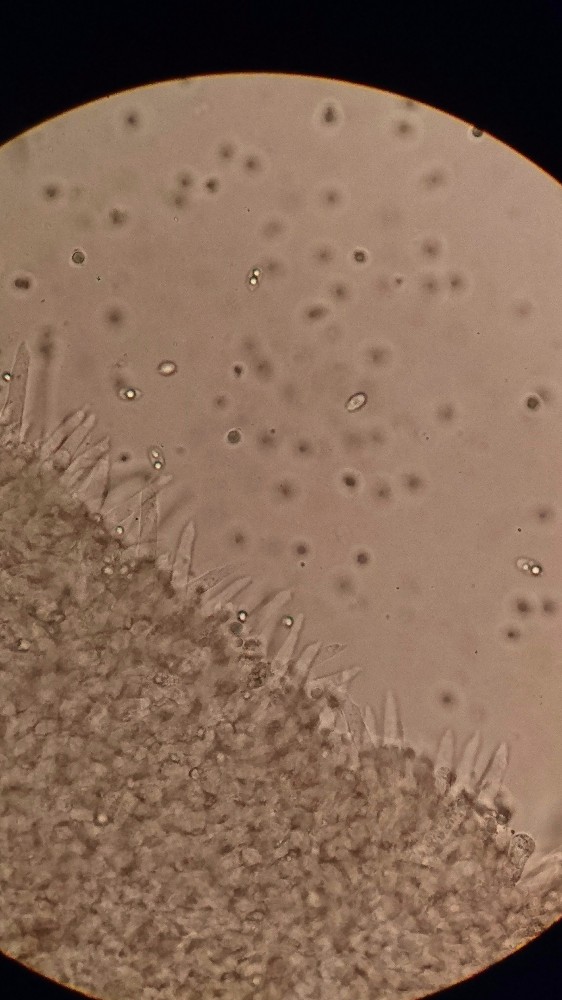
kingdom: Fungi
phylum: Basidiomycota
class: Agaricomycetes
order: Agaricales
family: Mycenaceae
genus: Mycena
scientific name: Mycena galopus
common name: hvidmælket huesvamp
